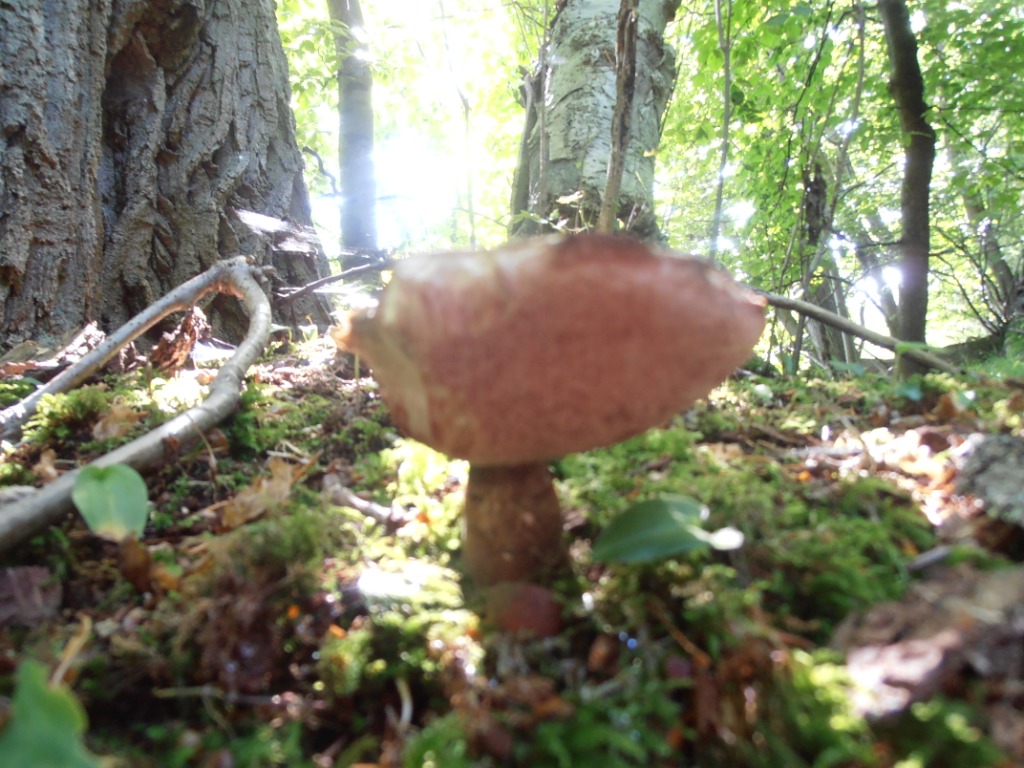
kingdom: Fungi
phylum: Basidiomycota
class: Agaricomycetes
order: Boletales
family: Boletaceae
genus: Tylopilus
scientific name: Tylopilus felleus
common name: galderørhat
